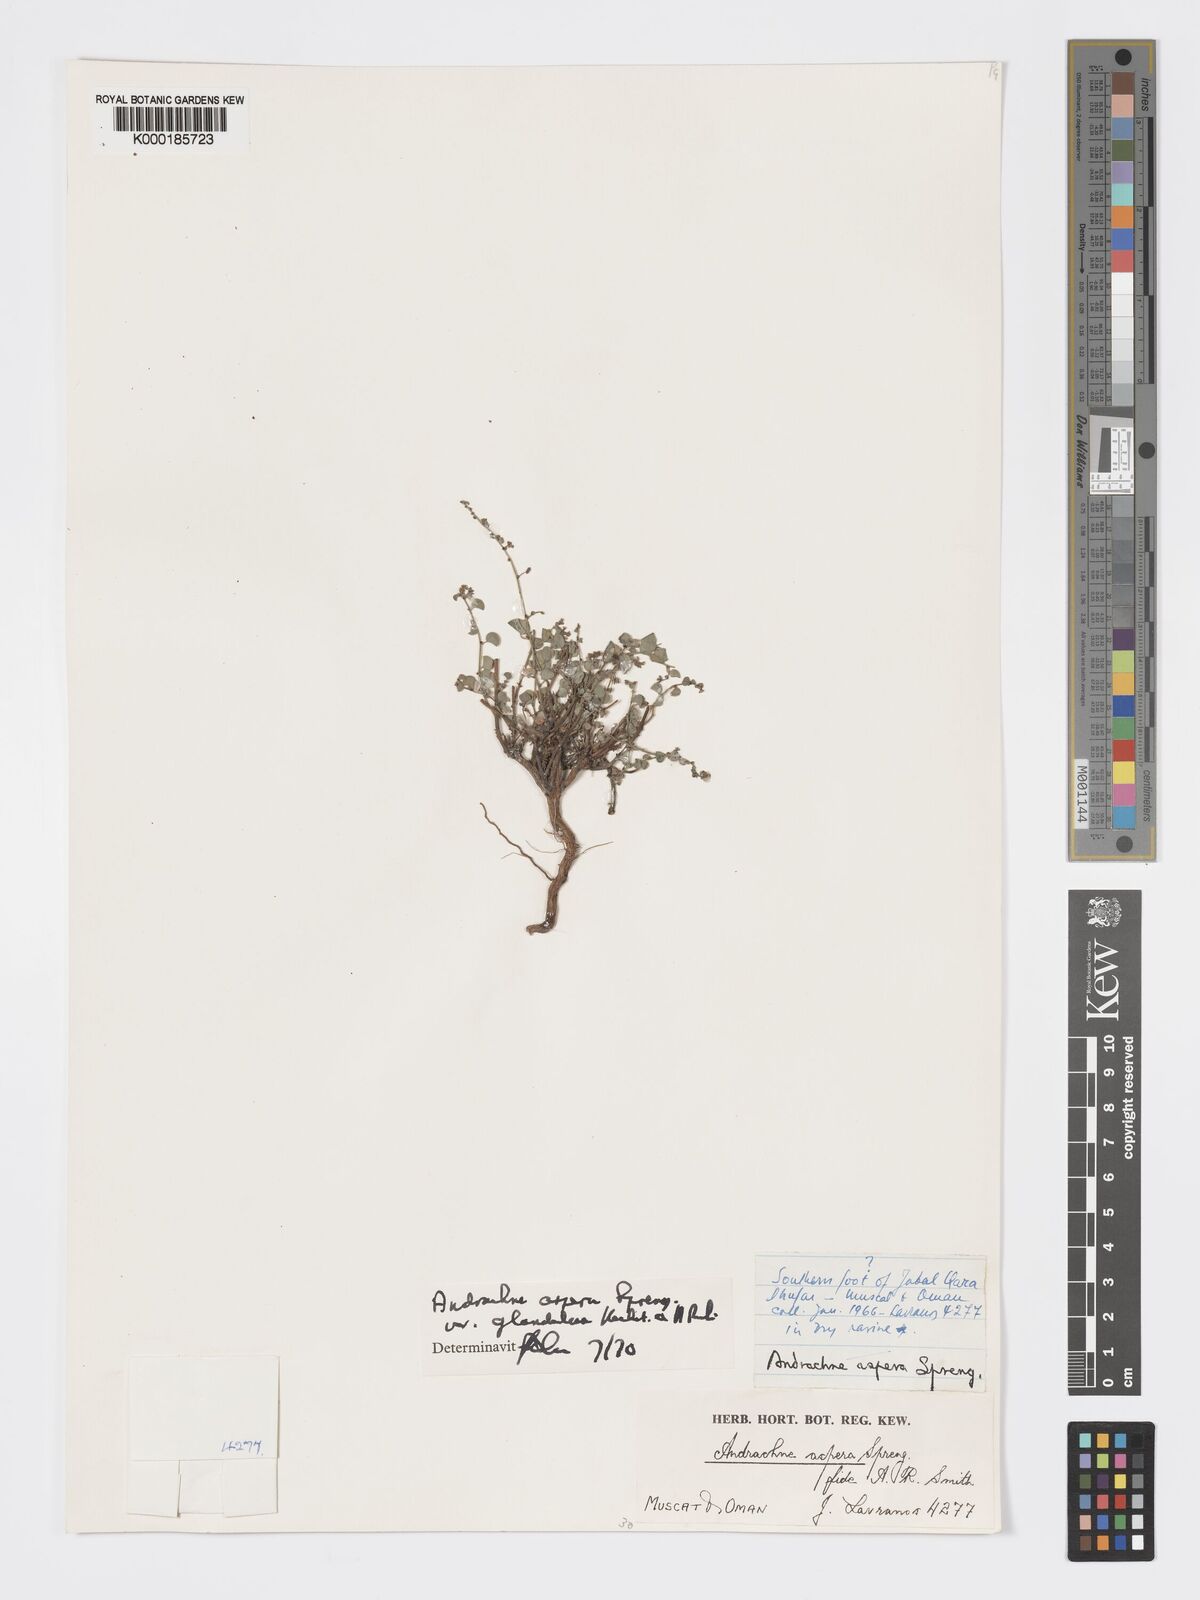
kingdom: Plantae
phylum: Tracheophyta
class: Magnoliopsida
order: Malpighiales
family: Phyllanthaceae
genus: Andrachne
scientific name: Andrachne aspera
